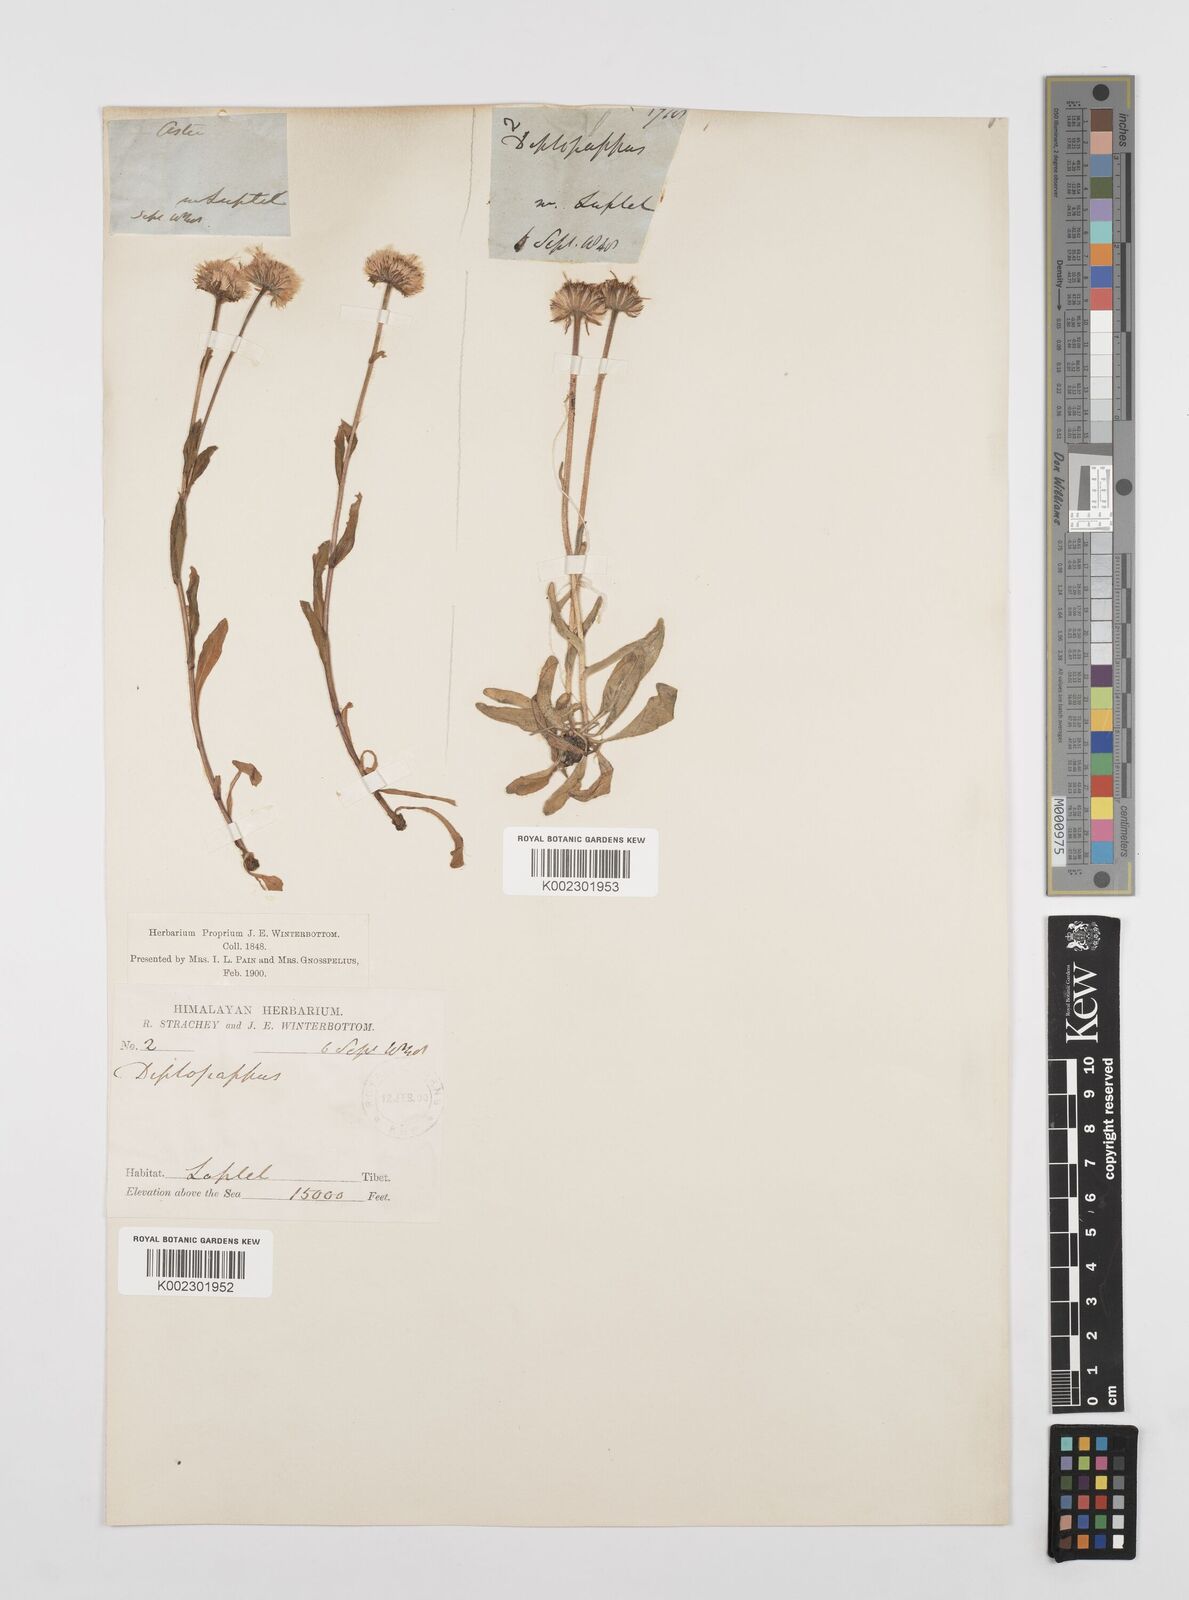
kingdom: Plantae
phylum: Tracheophyta
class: Magnoliopsida
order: Asterales
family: Asteraceae
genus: Erigeron
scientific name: Erigeron alpinus
